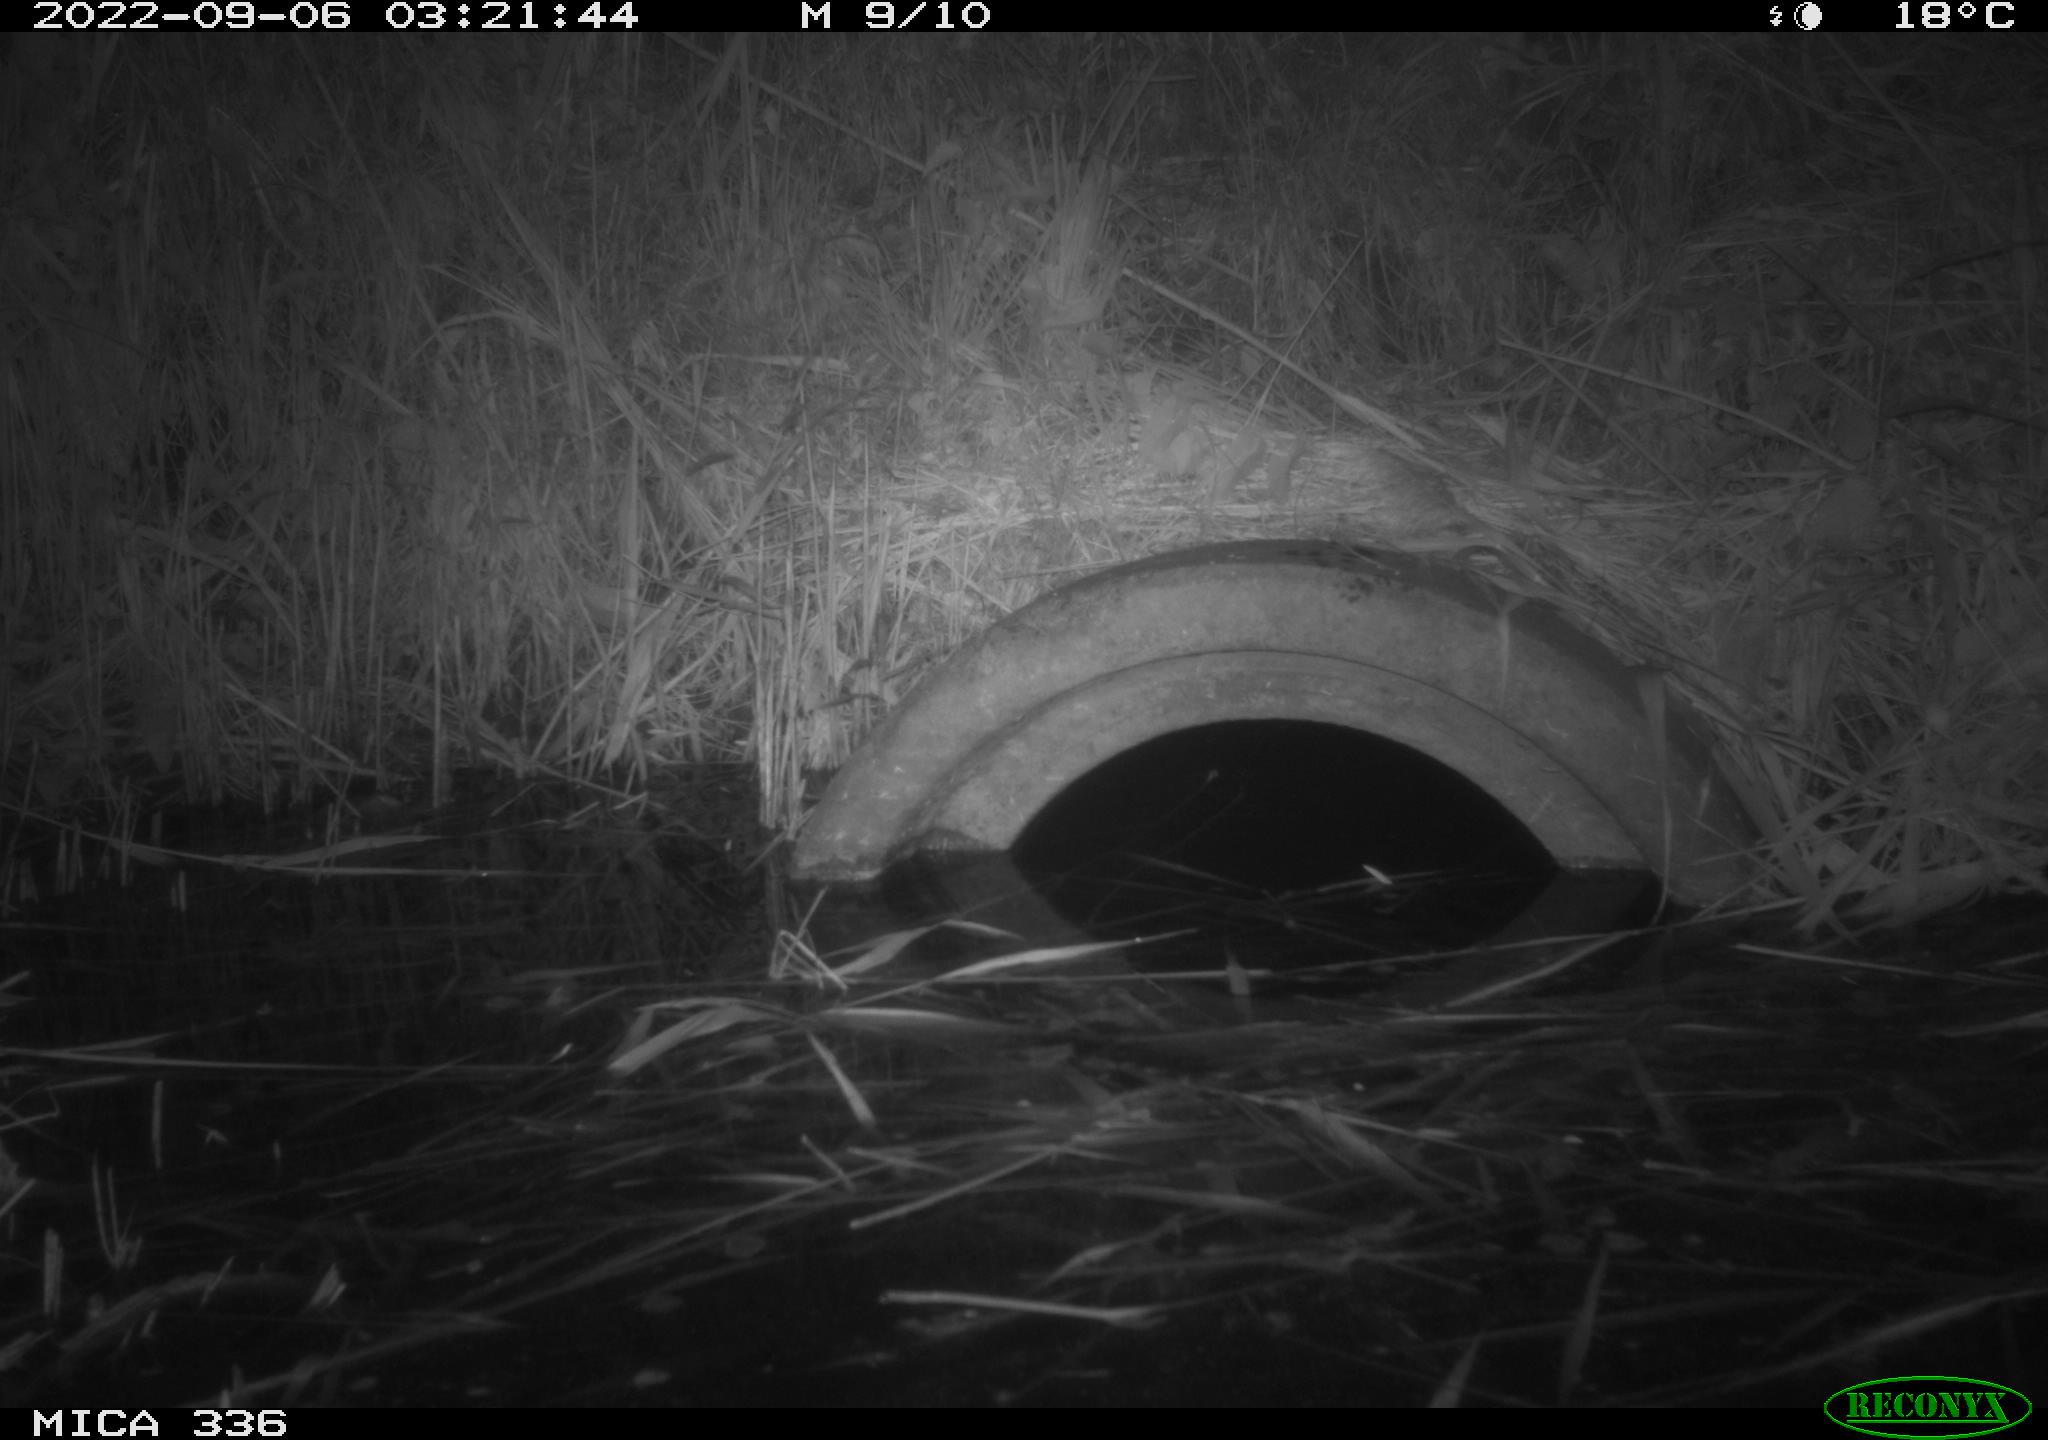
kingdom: Animalia
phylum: Chordata
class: Mammalia
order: Rodentia
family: Muridae
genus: Rattus
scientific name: Rattus norvegicus
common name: Brown rat
